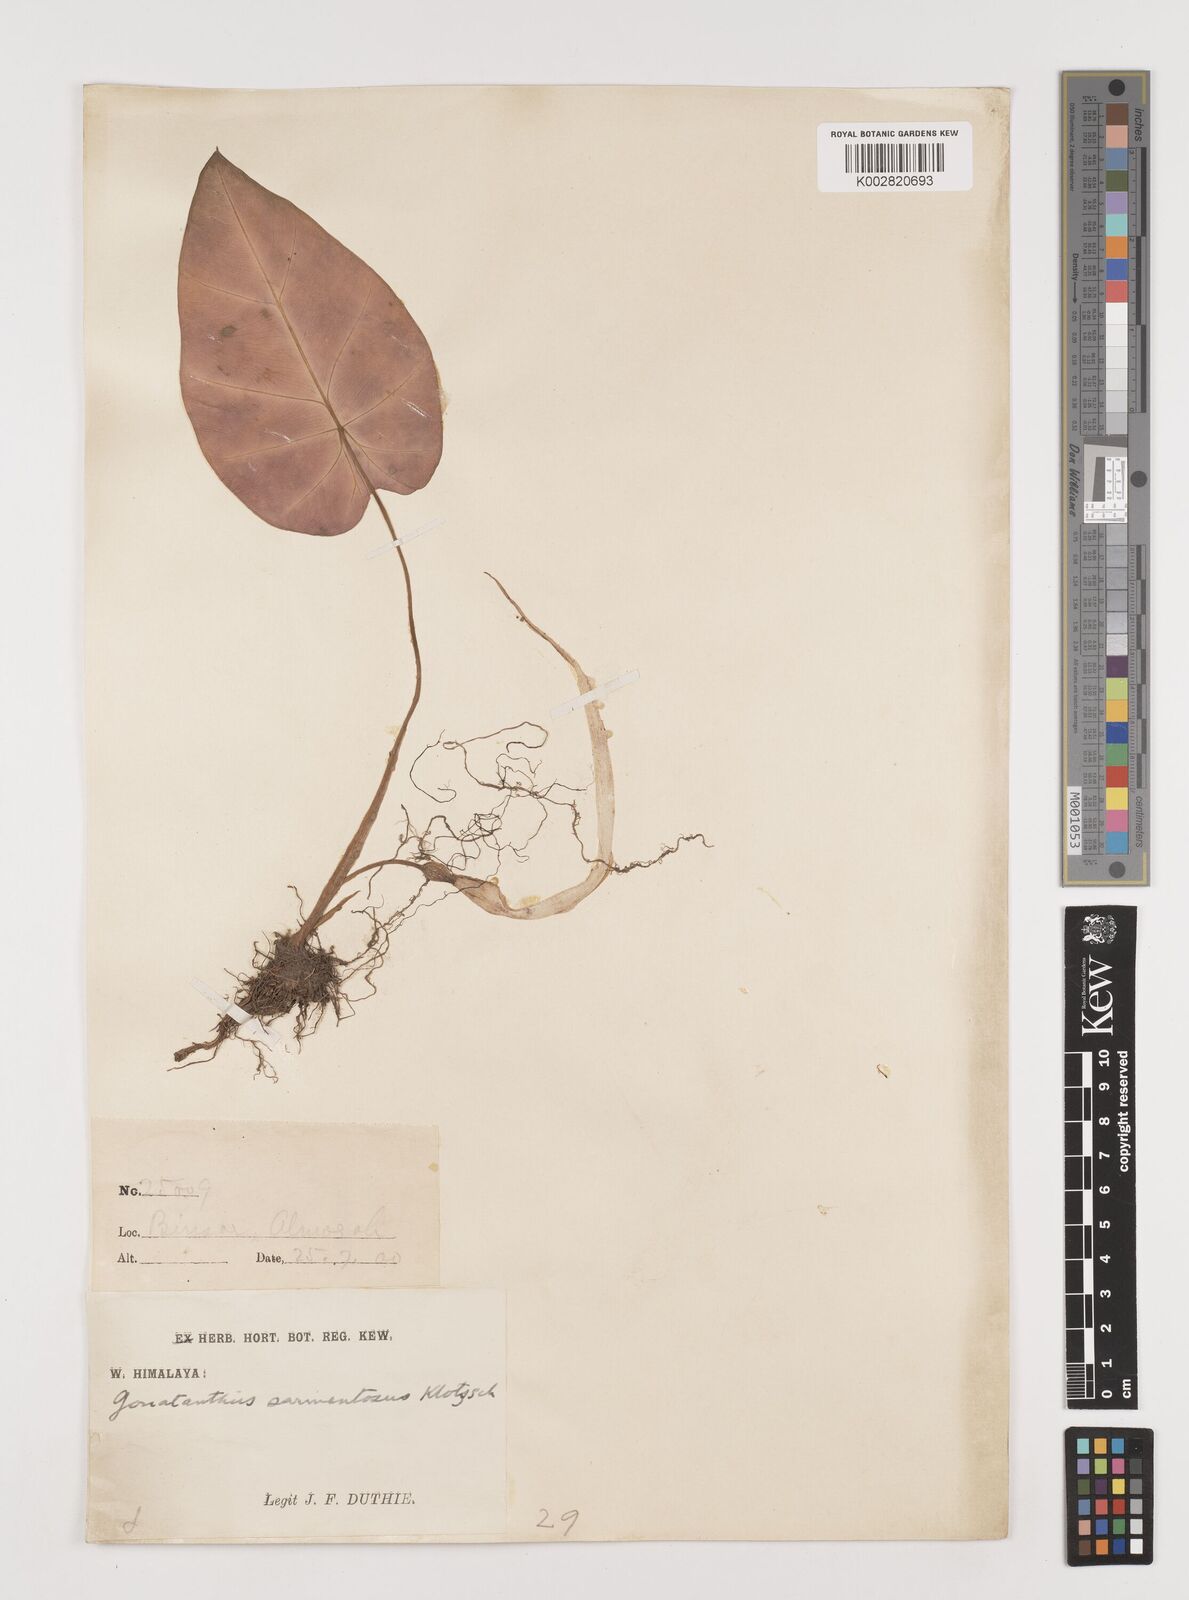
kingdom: Plantae
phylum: Tracheophyta
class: Liliopsida
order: Alismatales
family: Araceae
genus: Remusatia
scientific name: Remusatia pumila
